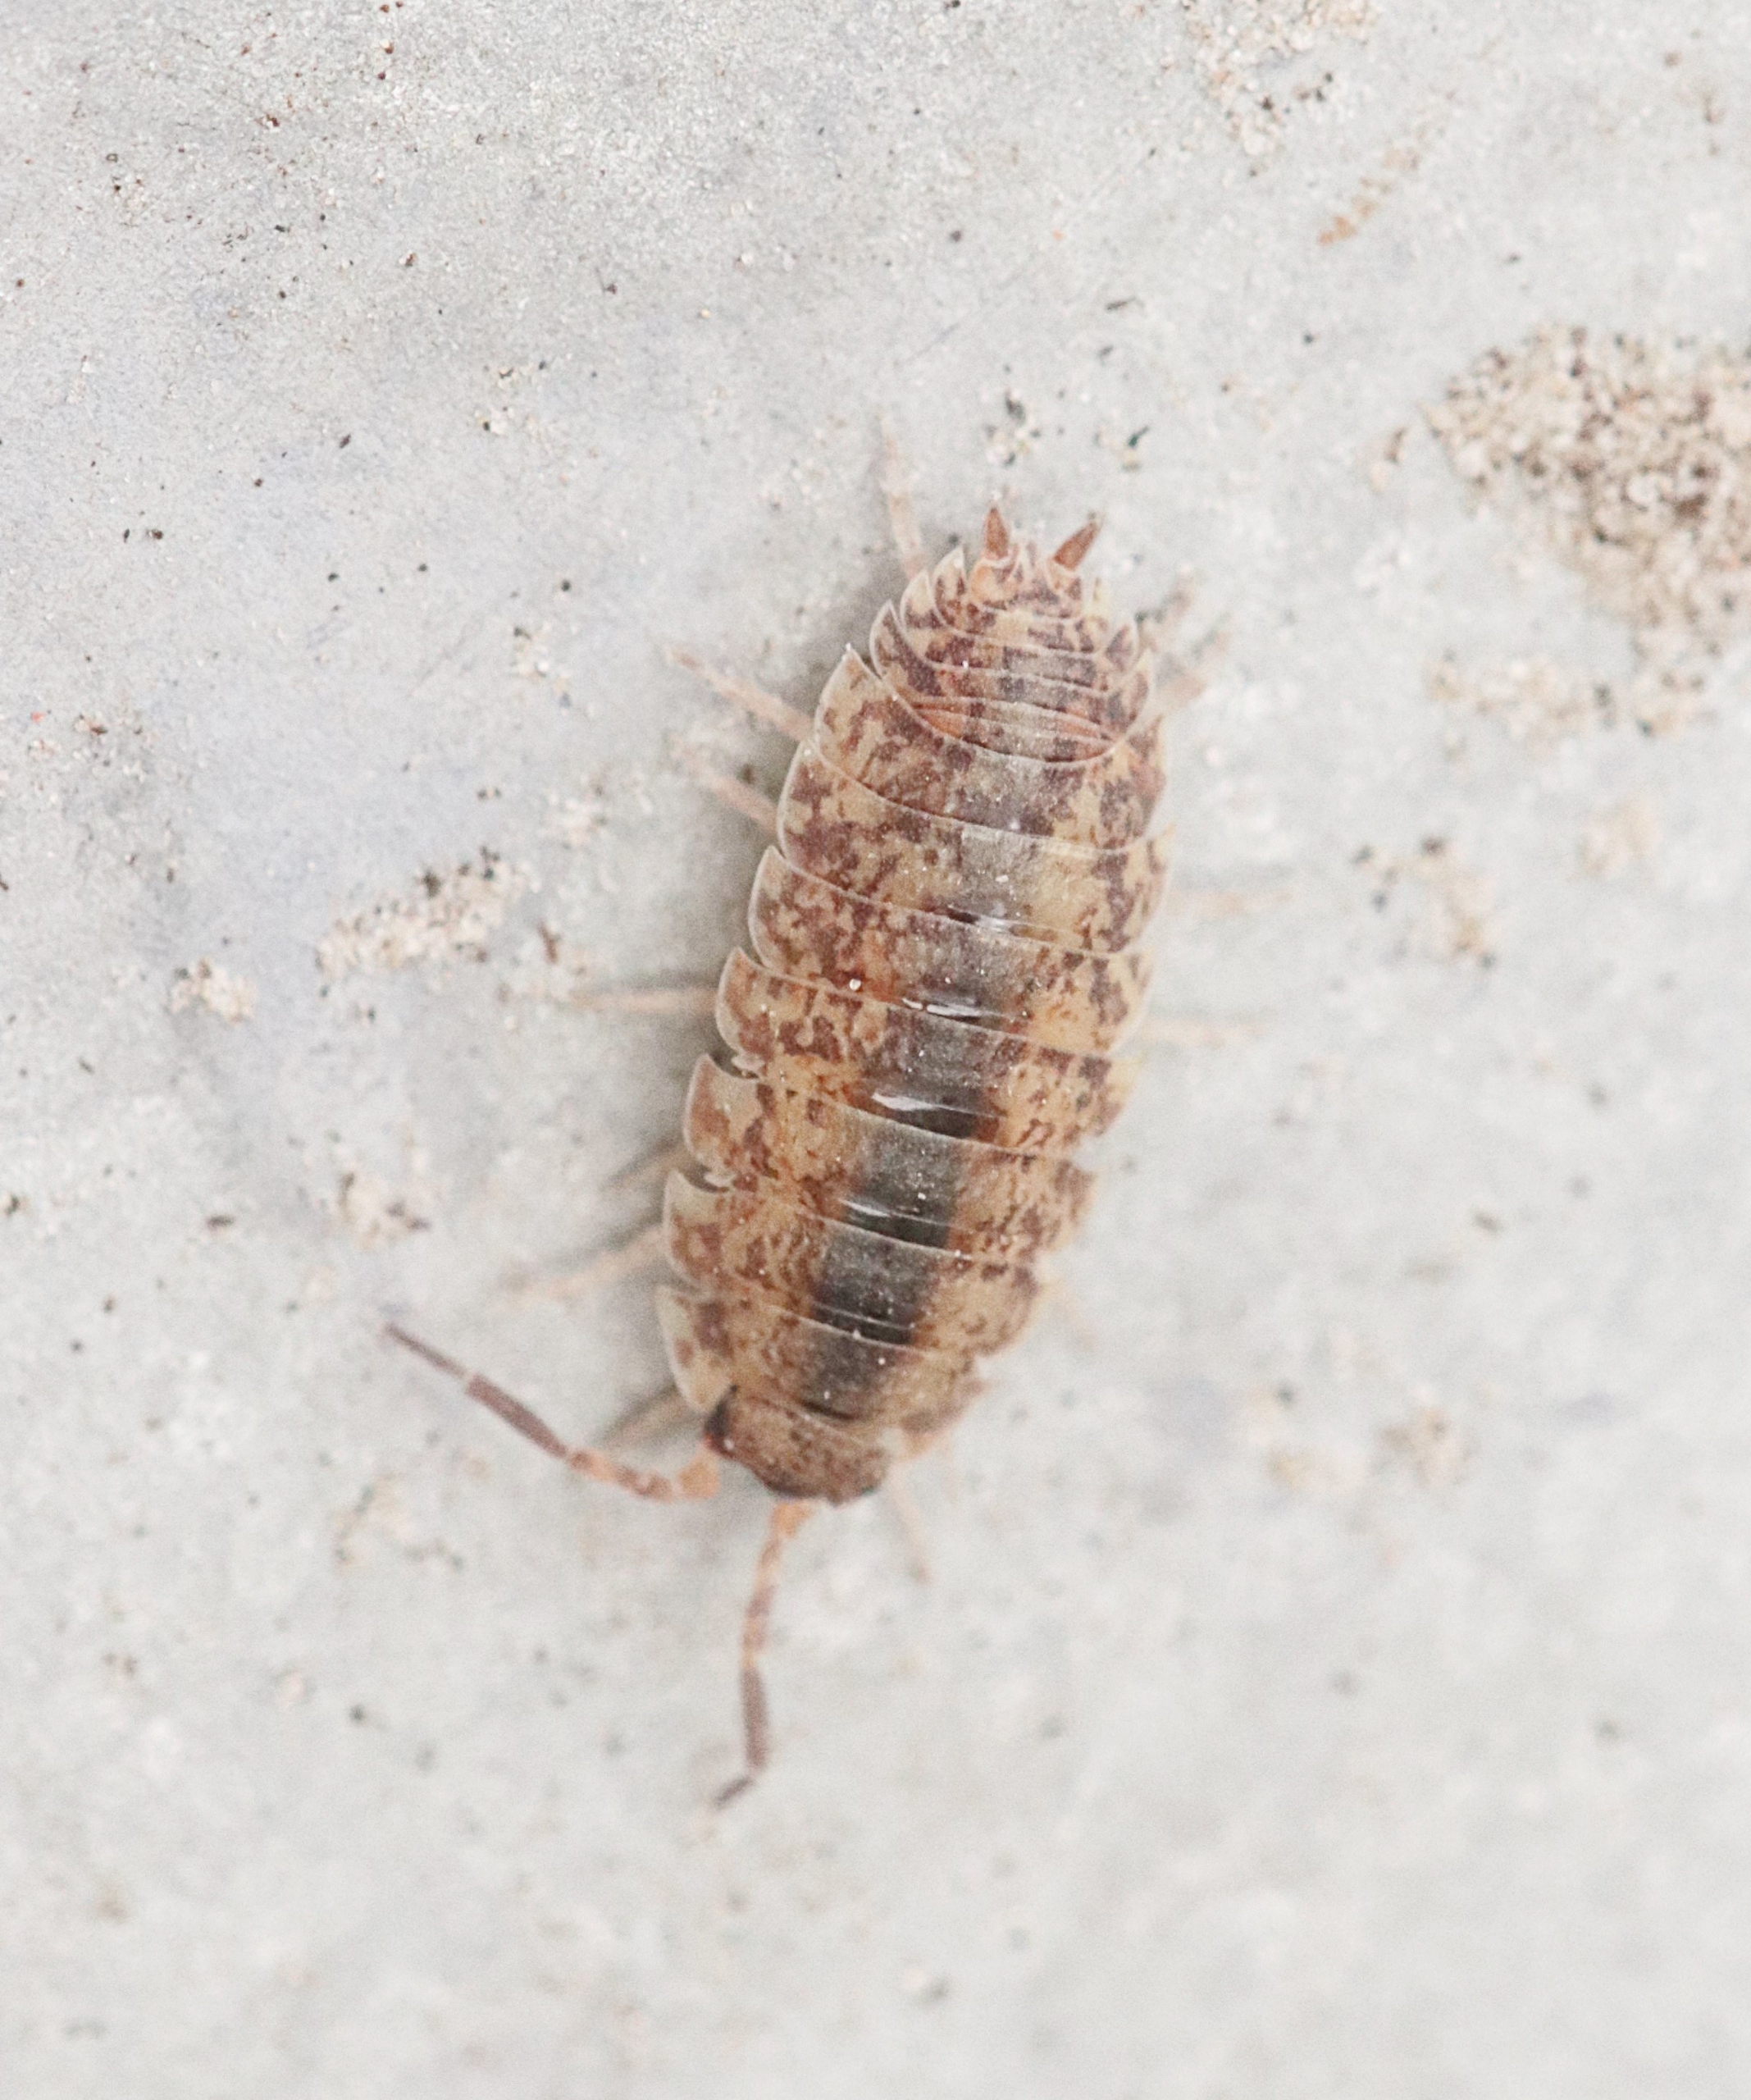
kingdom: Animalia
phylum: Arthropoda
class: Malacostraca
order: Isopoda
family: Porcellionidae
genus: Porcellio
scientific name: Porcellio scaber
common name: Grå bænkebider
